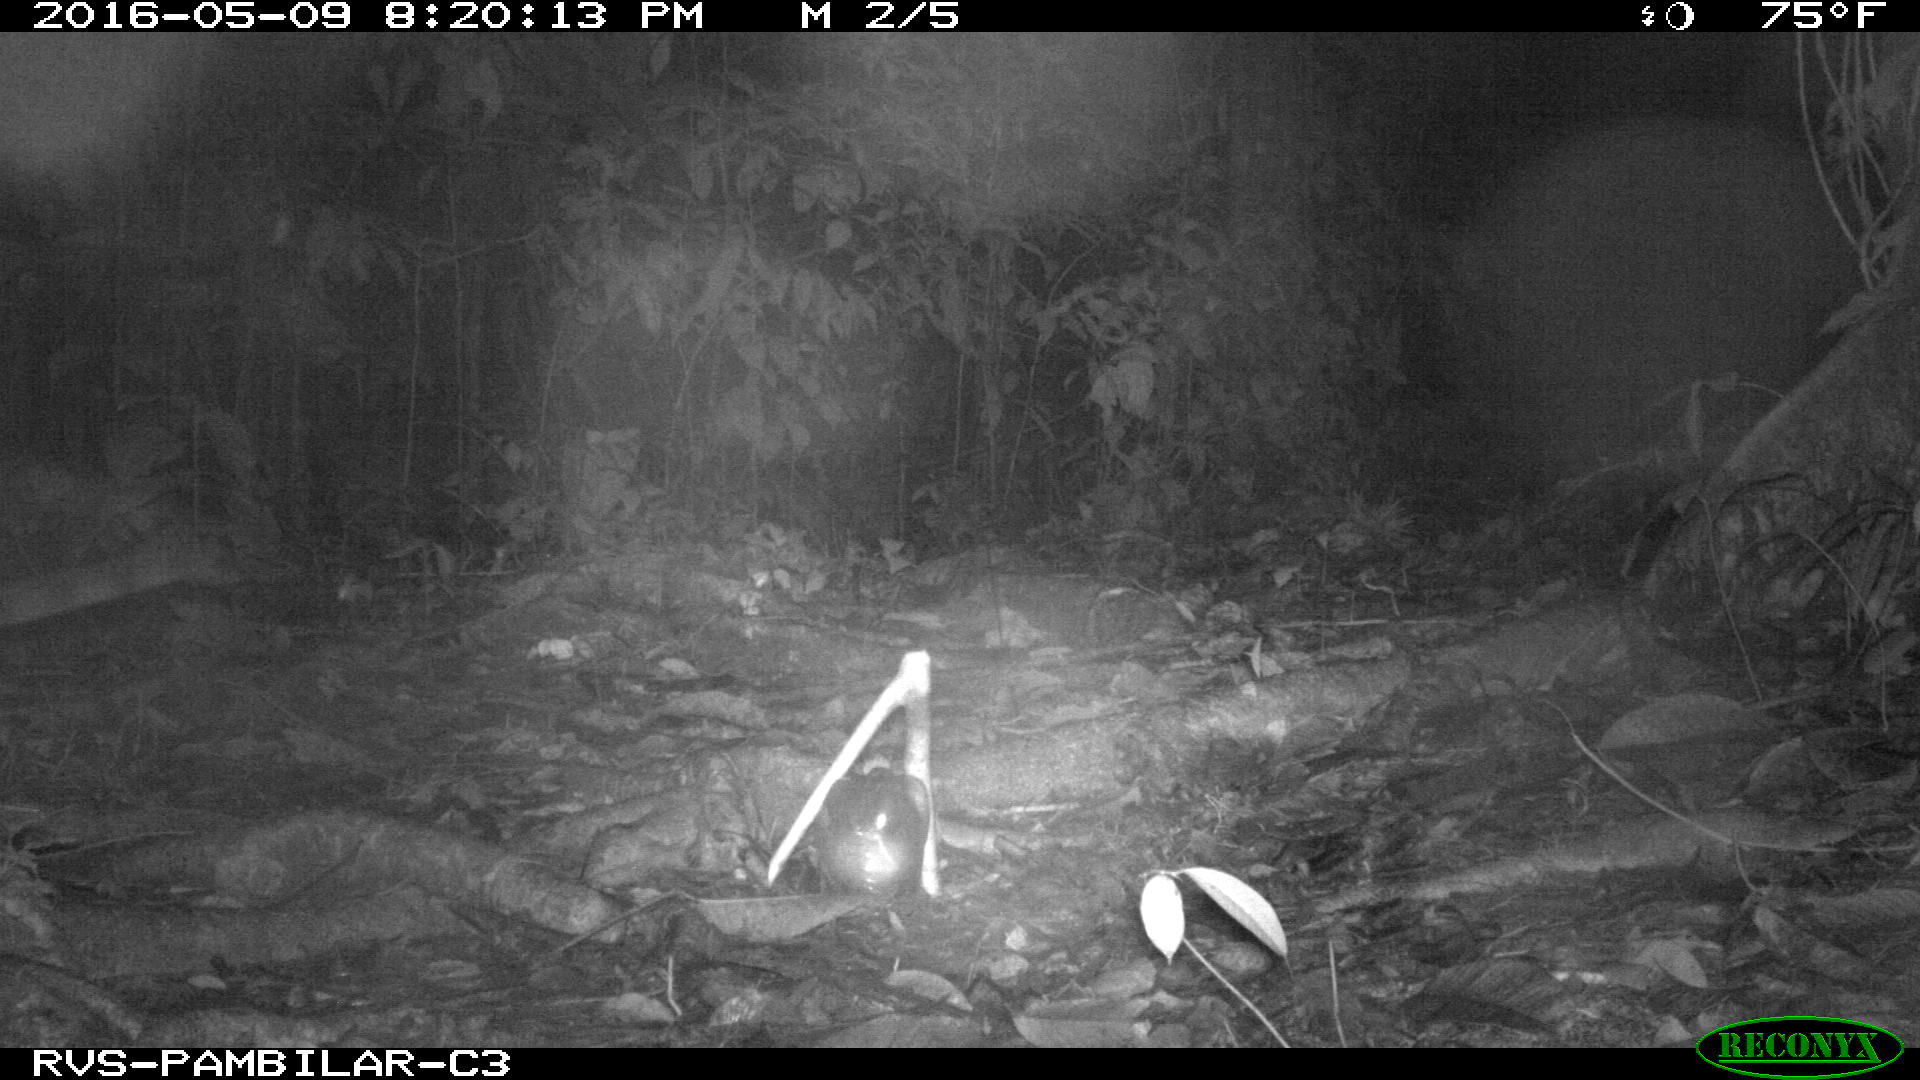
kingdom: Animalia
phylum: Chordata
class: Mammalia
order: Carnivora
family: Felidae
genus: Leopardus
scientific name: Leopardus pardalis
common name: Ocelot
